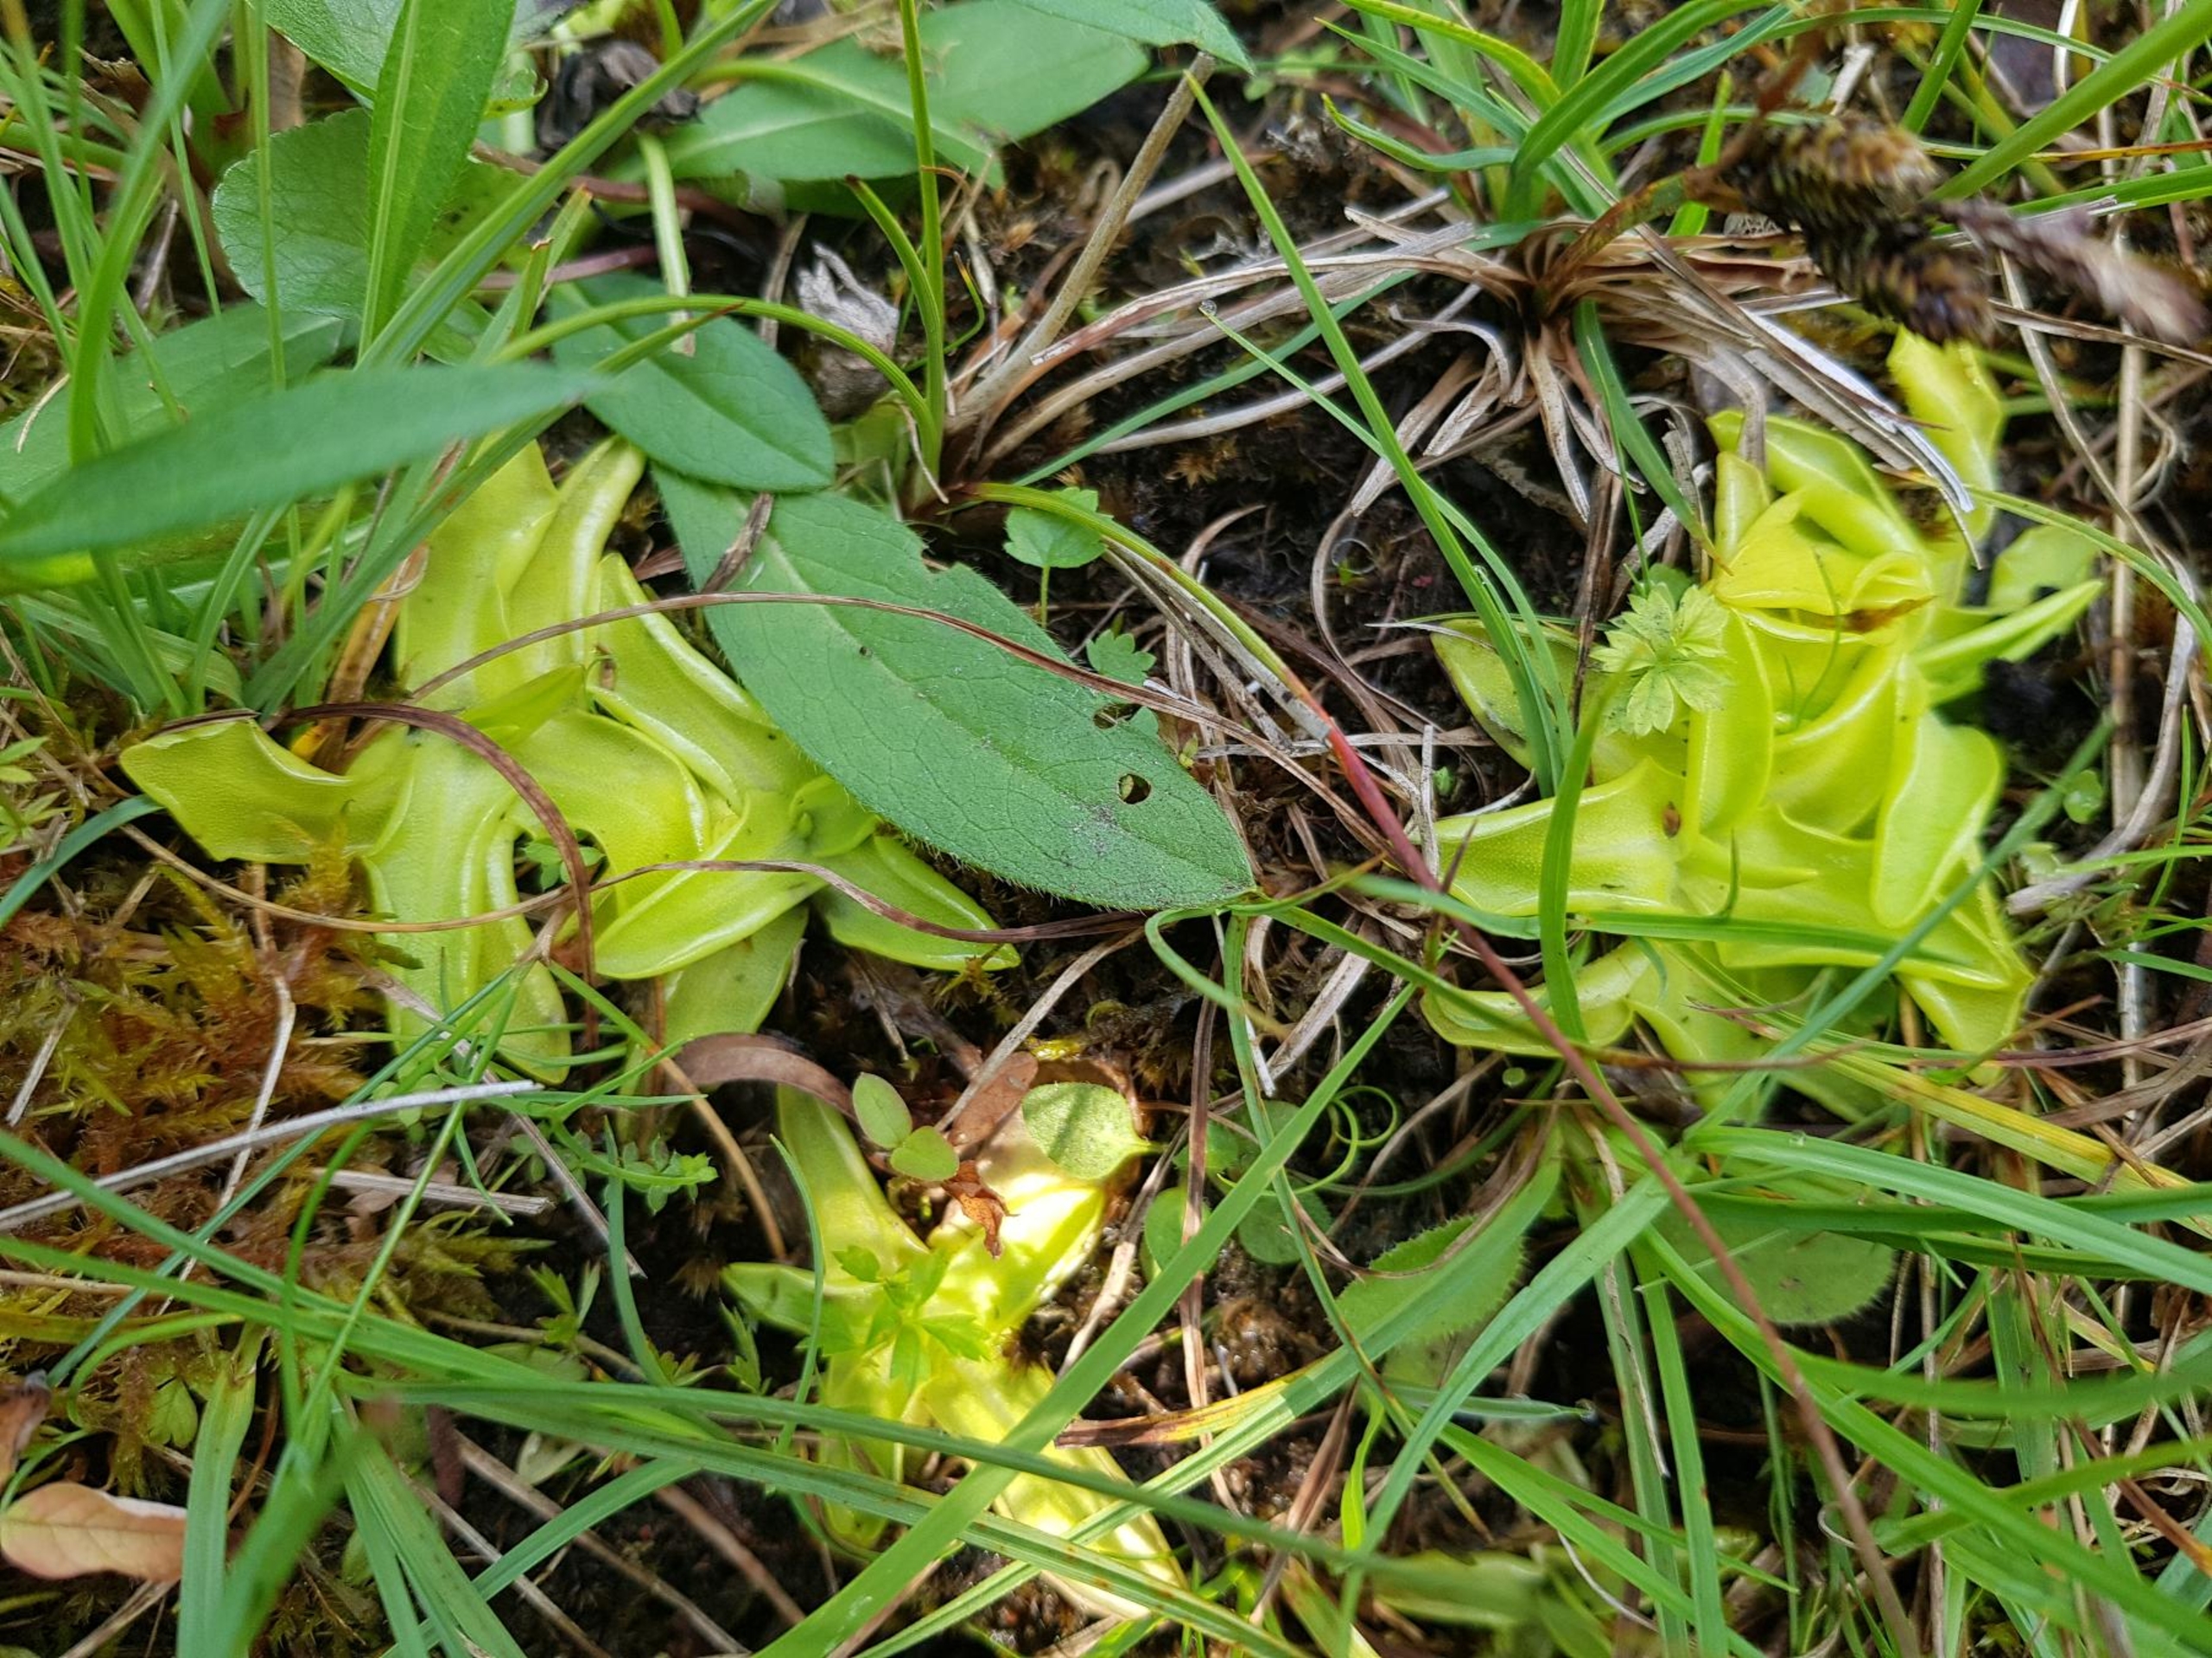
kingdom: Plantae
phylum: Tracheophyta
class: Magnoliopsida
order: Lamiales
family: Lentibulariaceae
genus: Pinguicula
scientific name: Pinguicula vulgaris
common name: Vibefedt
